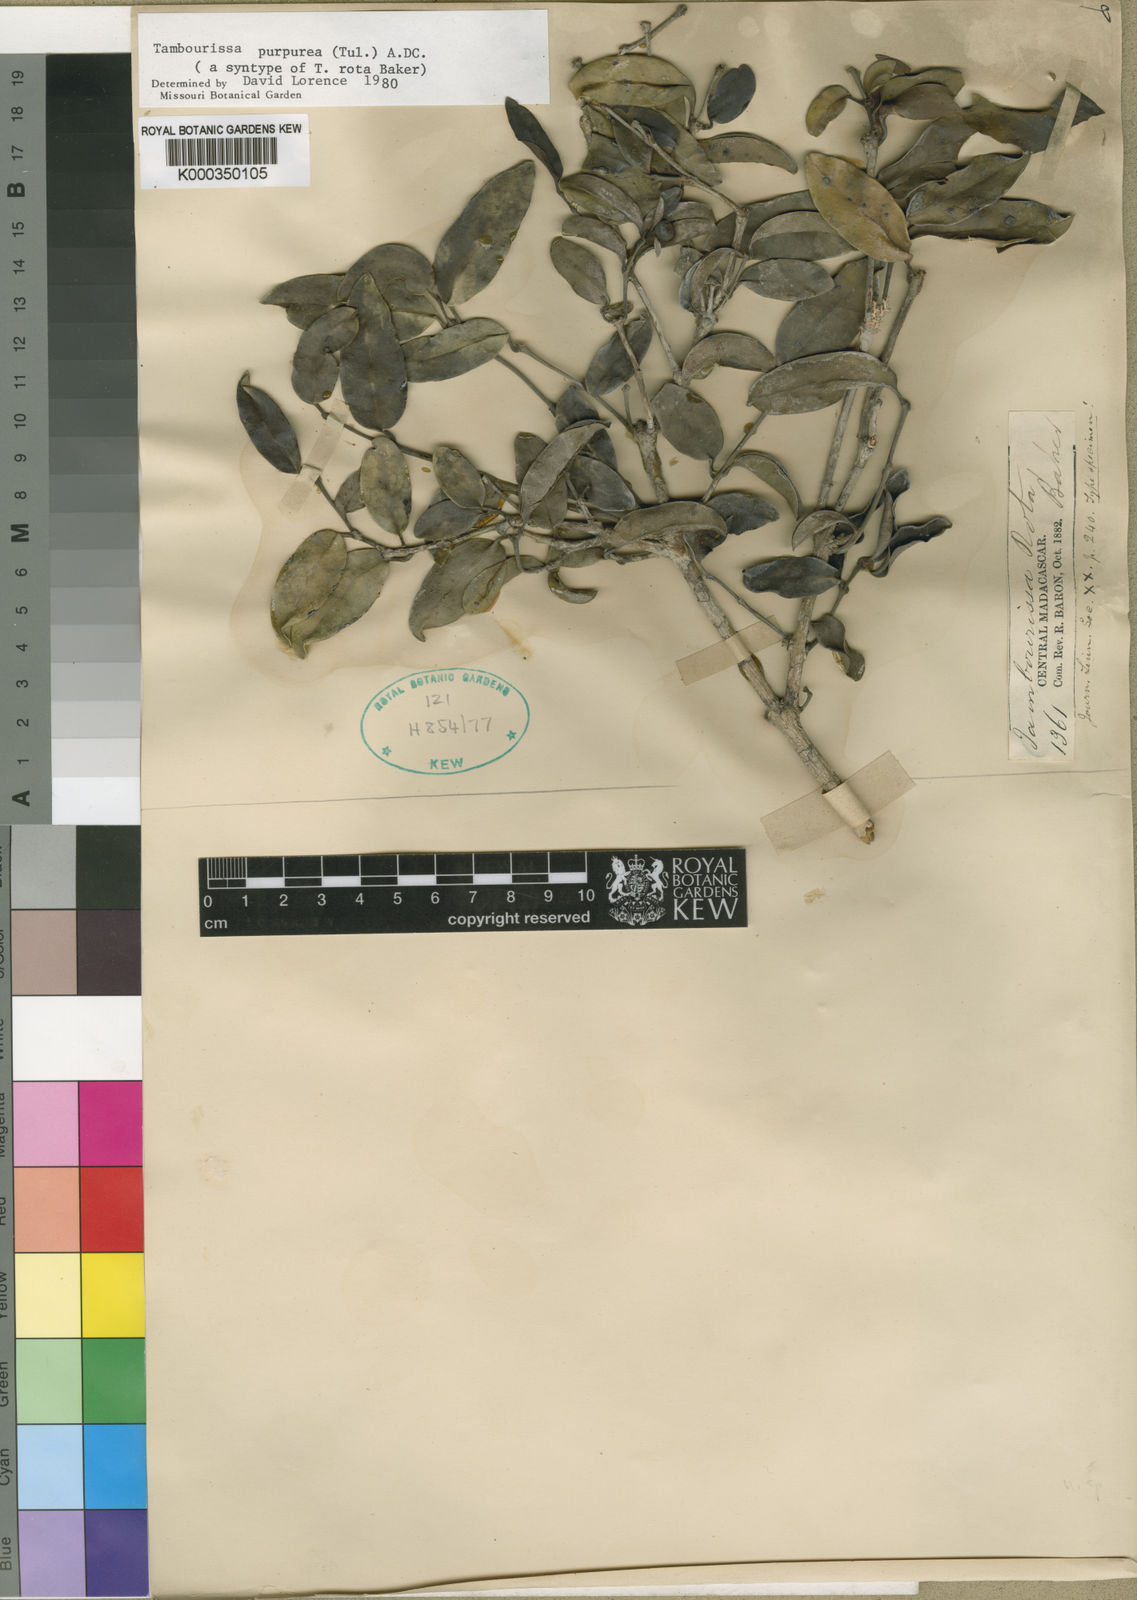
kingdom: Plantae
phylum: Tracheophyta
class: Magnoliopsida
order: Laurales
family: Monimiaceae
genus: Tambourissa
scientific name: Tambourissa purpurea
